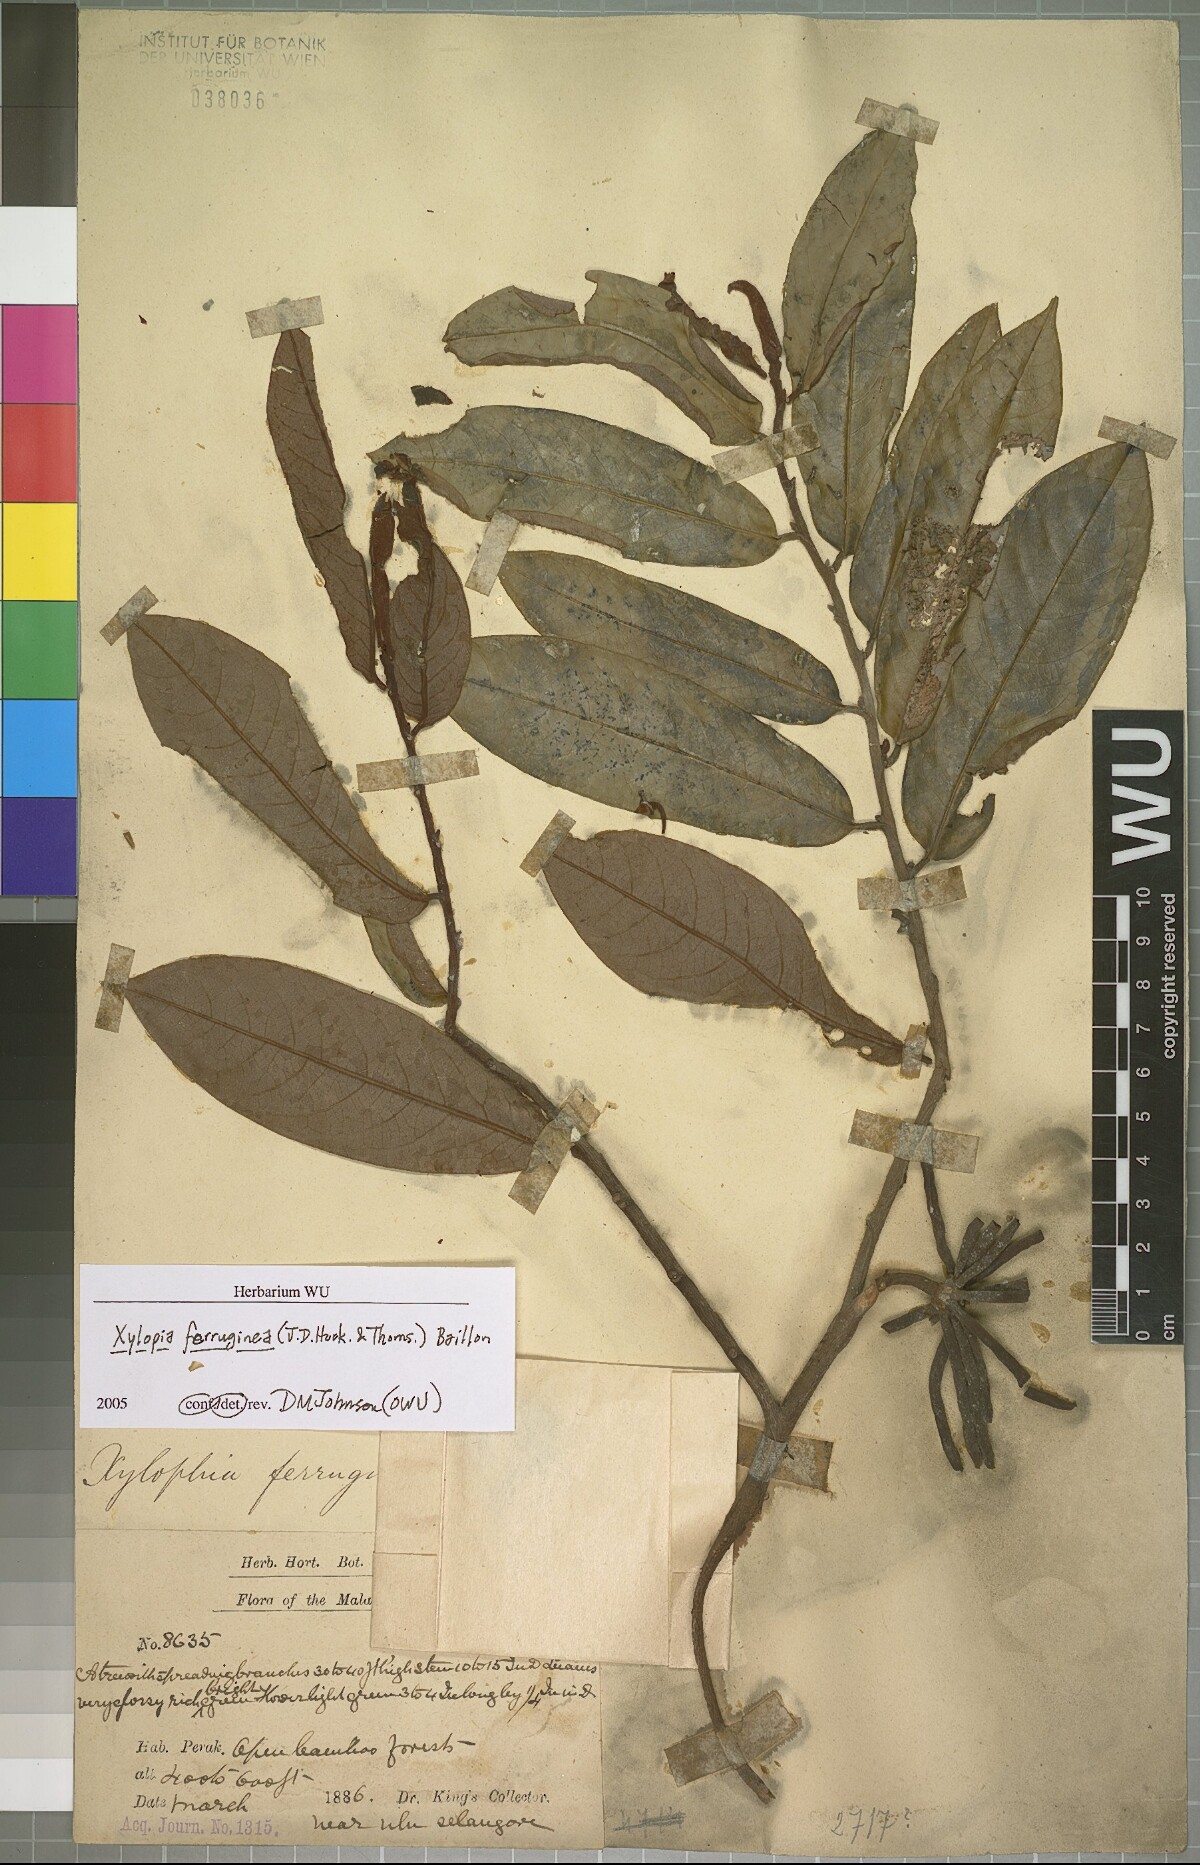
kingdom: Plantae
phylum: Tracheophyta
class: Magnoliopsida
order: Magnoliales
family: Annonaceae
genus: Xylopia
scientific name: Xylopia ferruginea
